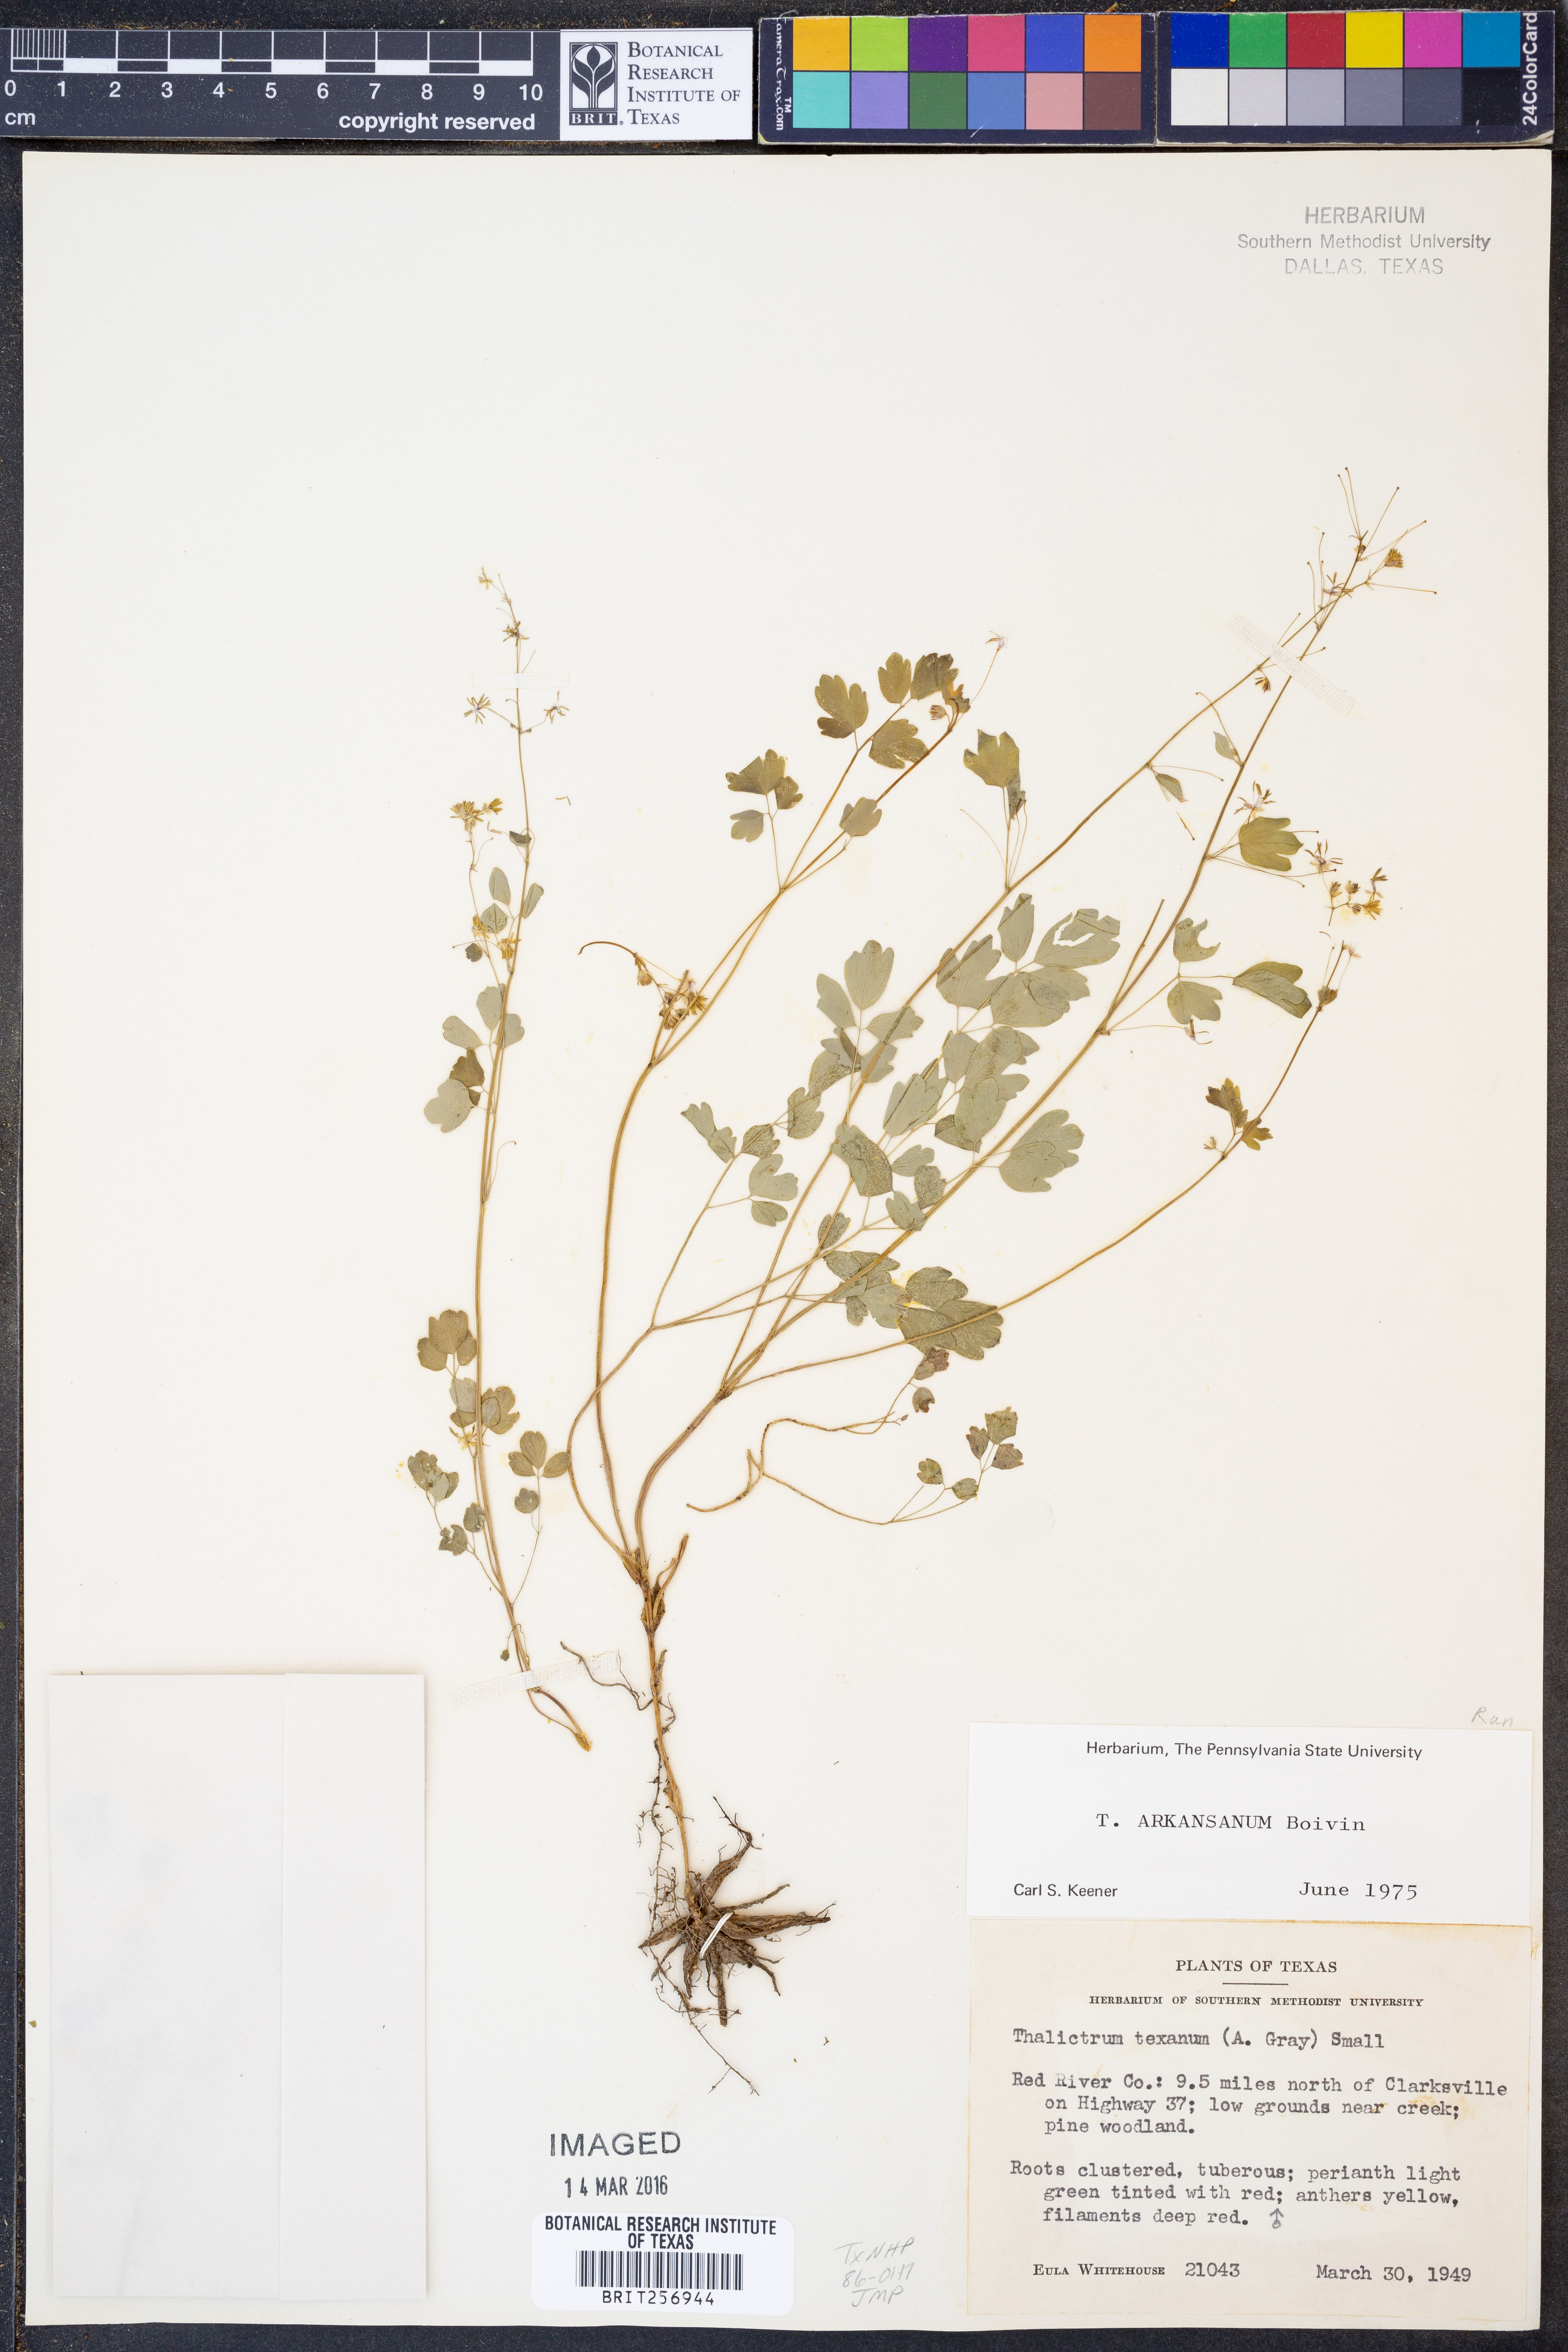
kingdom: Plantae
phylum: Tracheophyta
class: Magnoliopsida
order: Ranunculales
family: Ranunculaceae
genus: Thalictrum
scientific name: Thalictrum arkansanum
